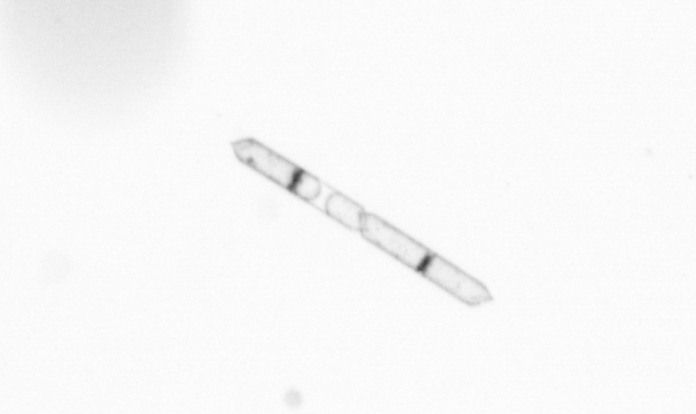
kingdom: Chromista
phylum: Ochrophyta
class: Bacillariophyceae
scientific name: Bacillariophyceae
